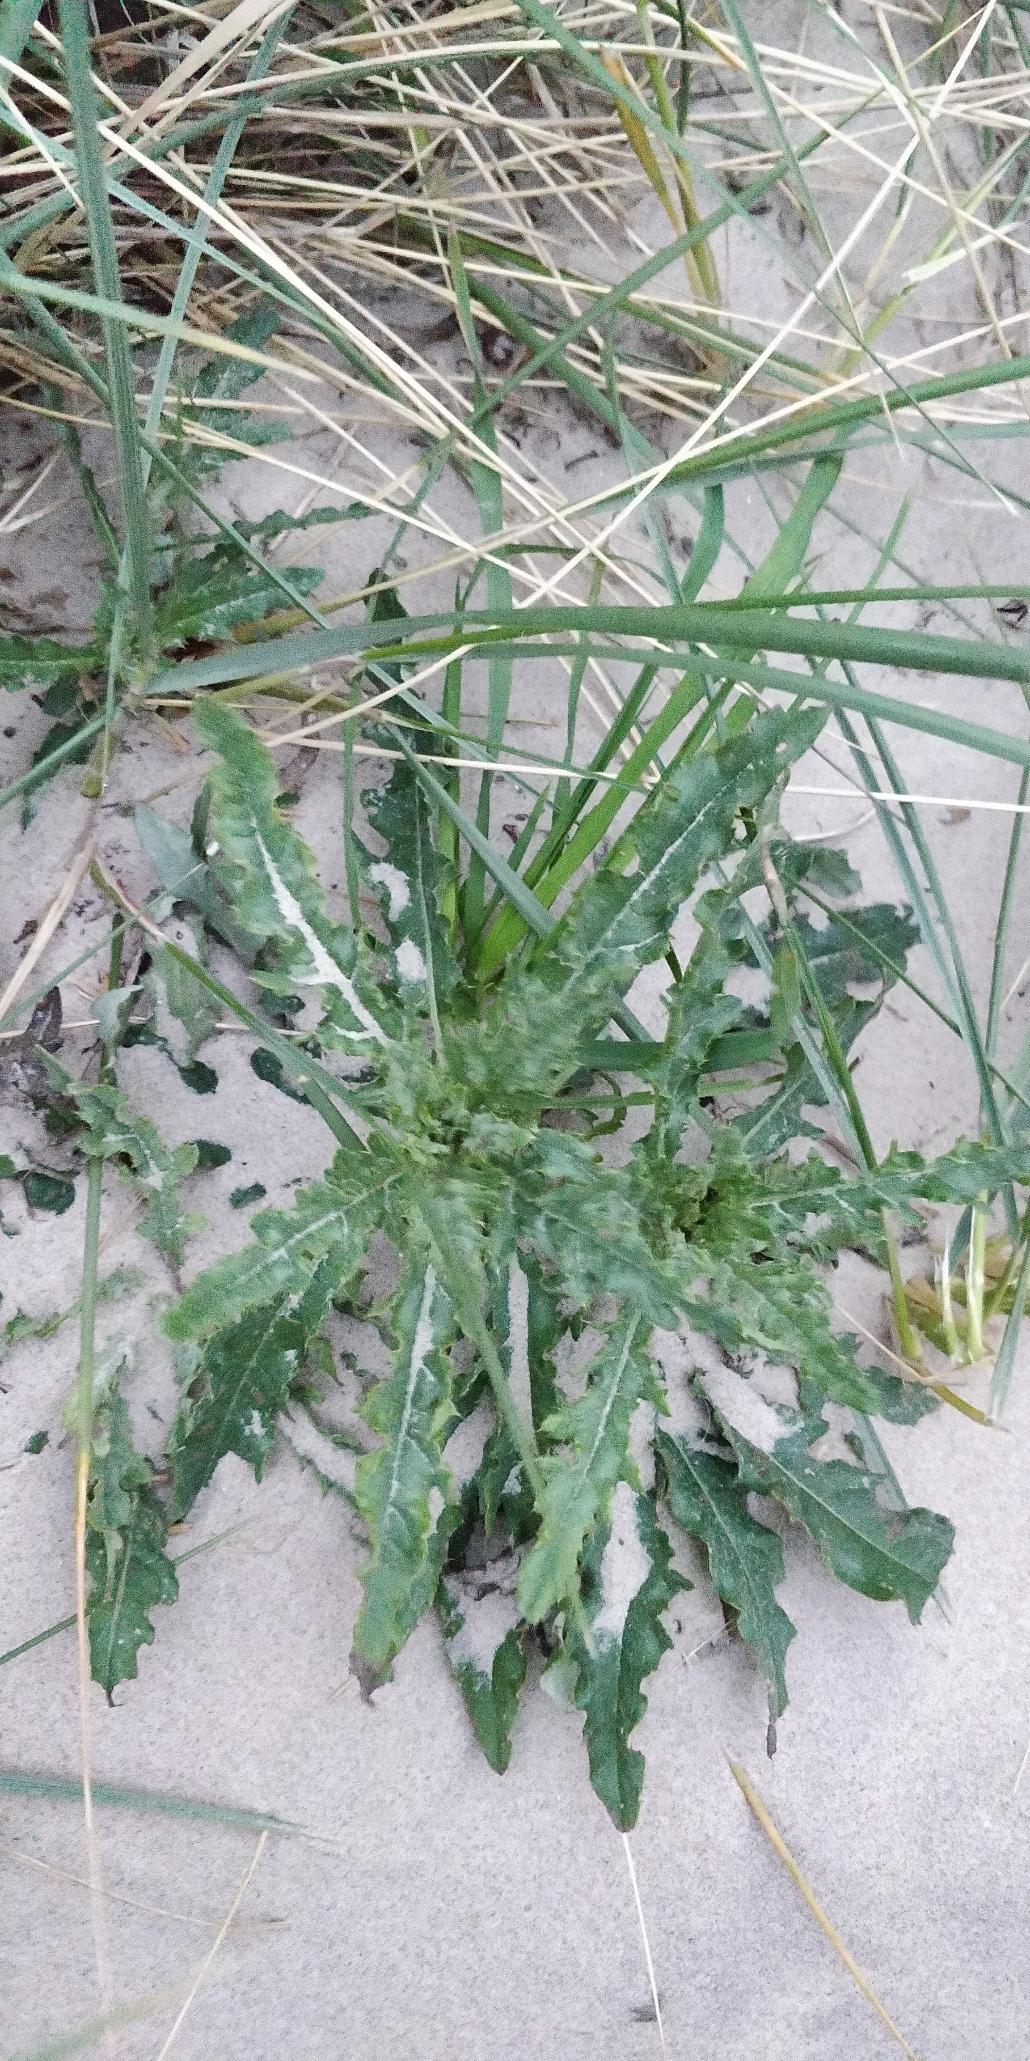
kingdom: Plantae
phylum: Tracheophyta
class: Magnoliopsida
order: Asterales
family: Asteraceae
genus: Cirsium
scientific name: Cirsium arvense
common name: Ager-tidsel
